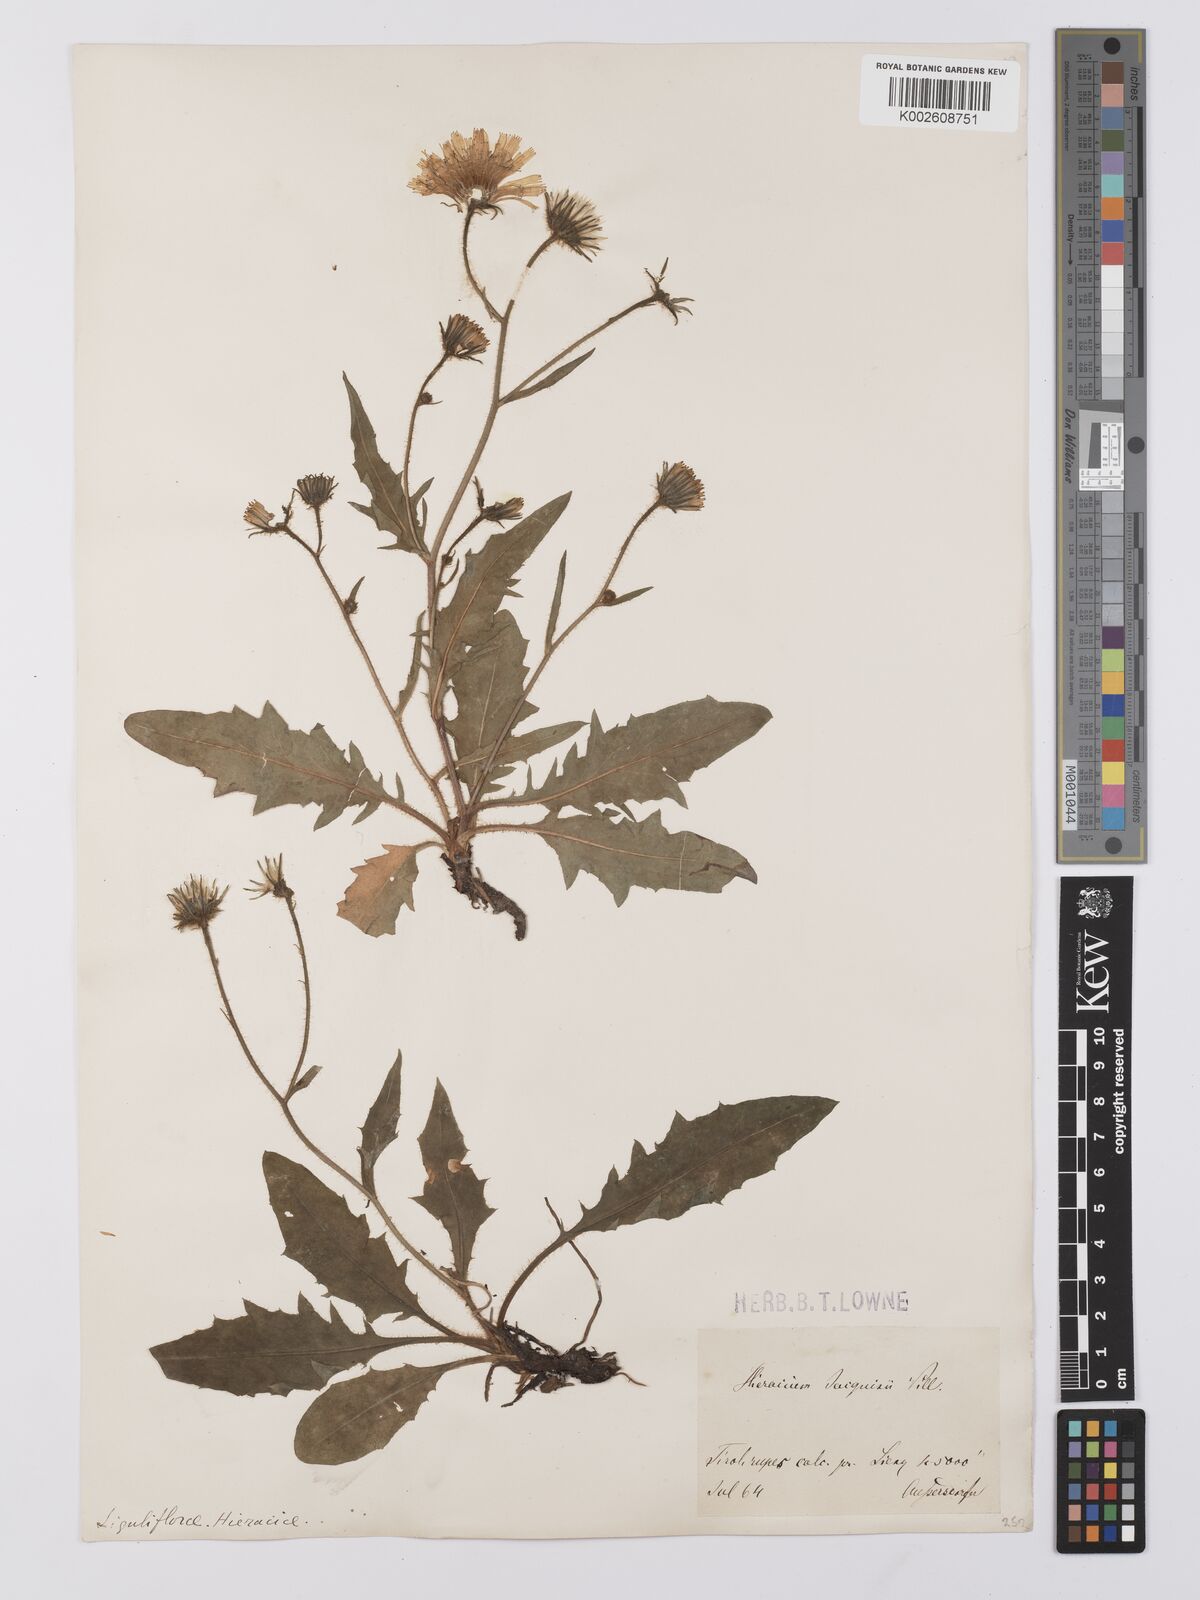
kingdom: Plantae
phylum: Tracheophyta
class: Magnoliopsida
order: Asterales
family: Asteraceae
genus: Hieracium
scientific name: Hieracium humile
